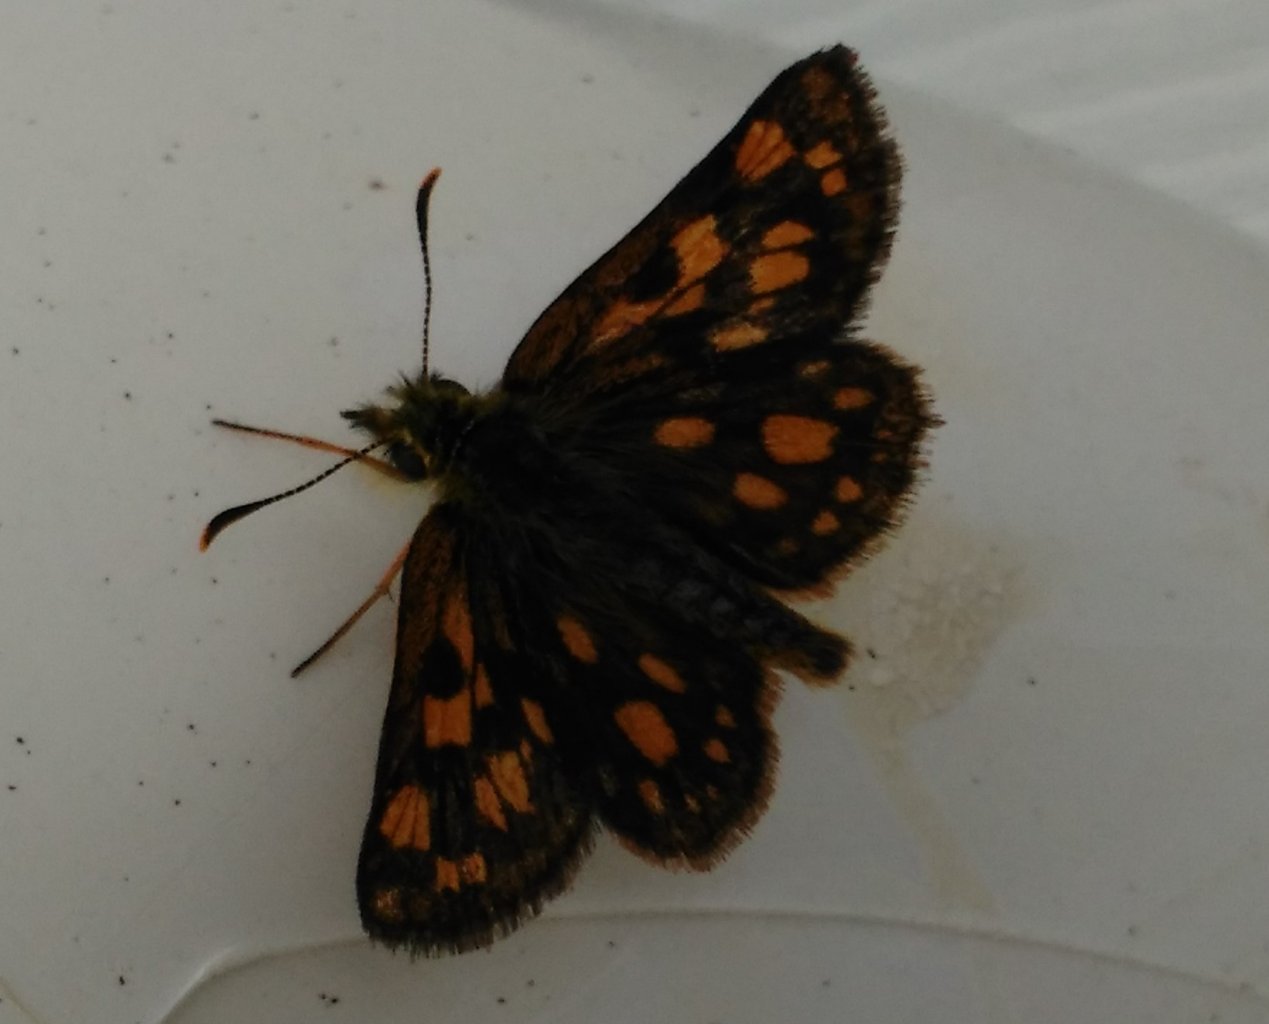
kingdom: Animalia
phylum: Arthropoda
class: Insecta
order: Lepidoptera
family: Nymphalidae
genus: Boloria
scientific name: Boloria chariclea
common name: Arctic Fritillary
